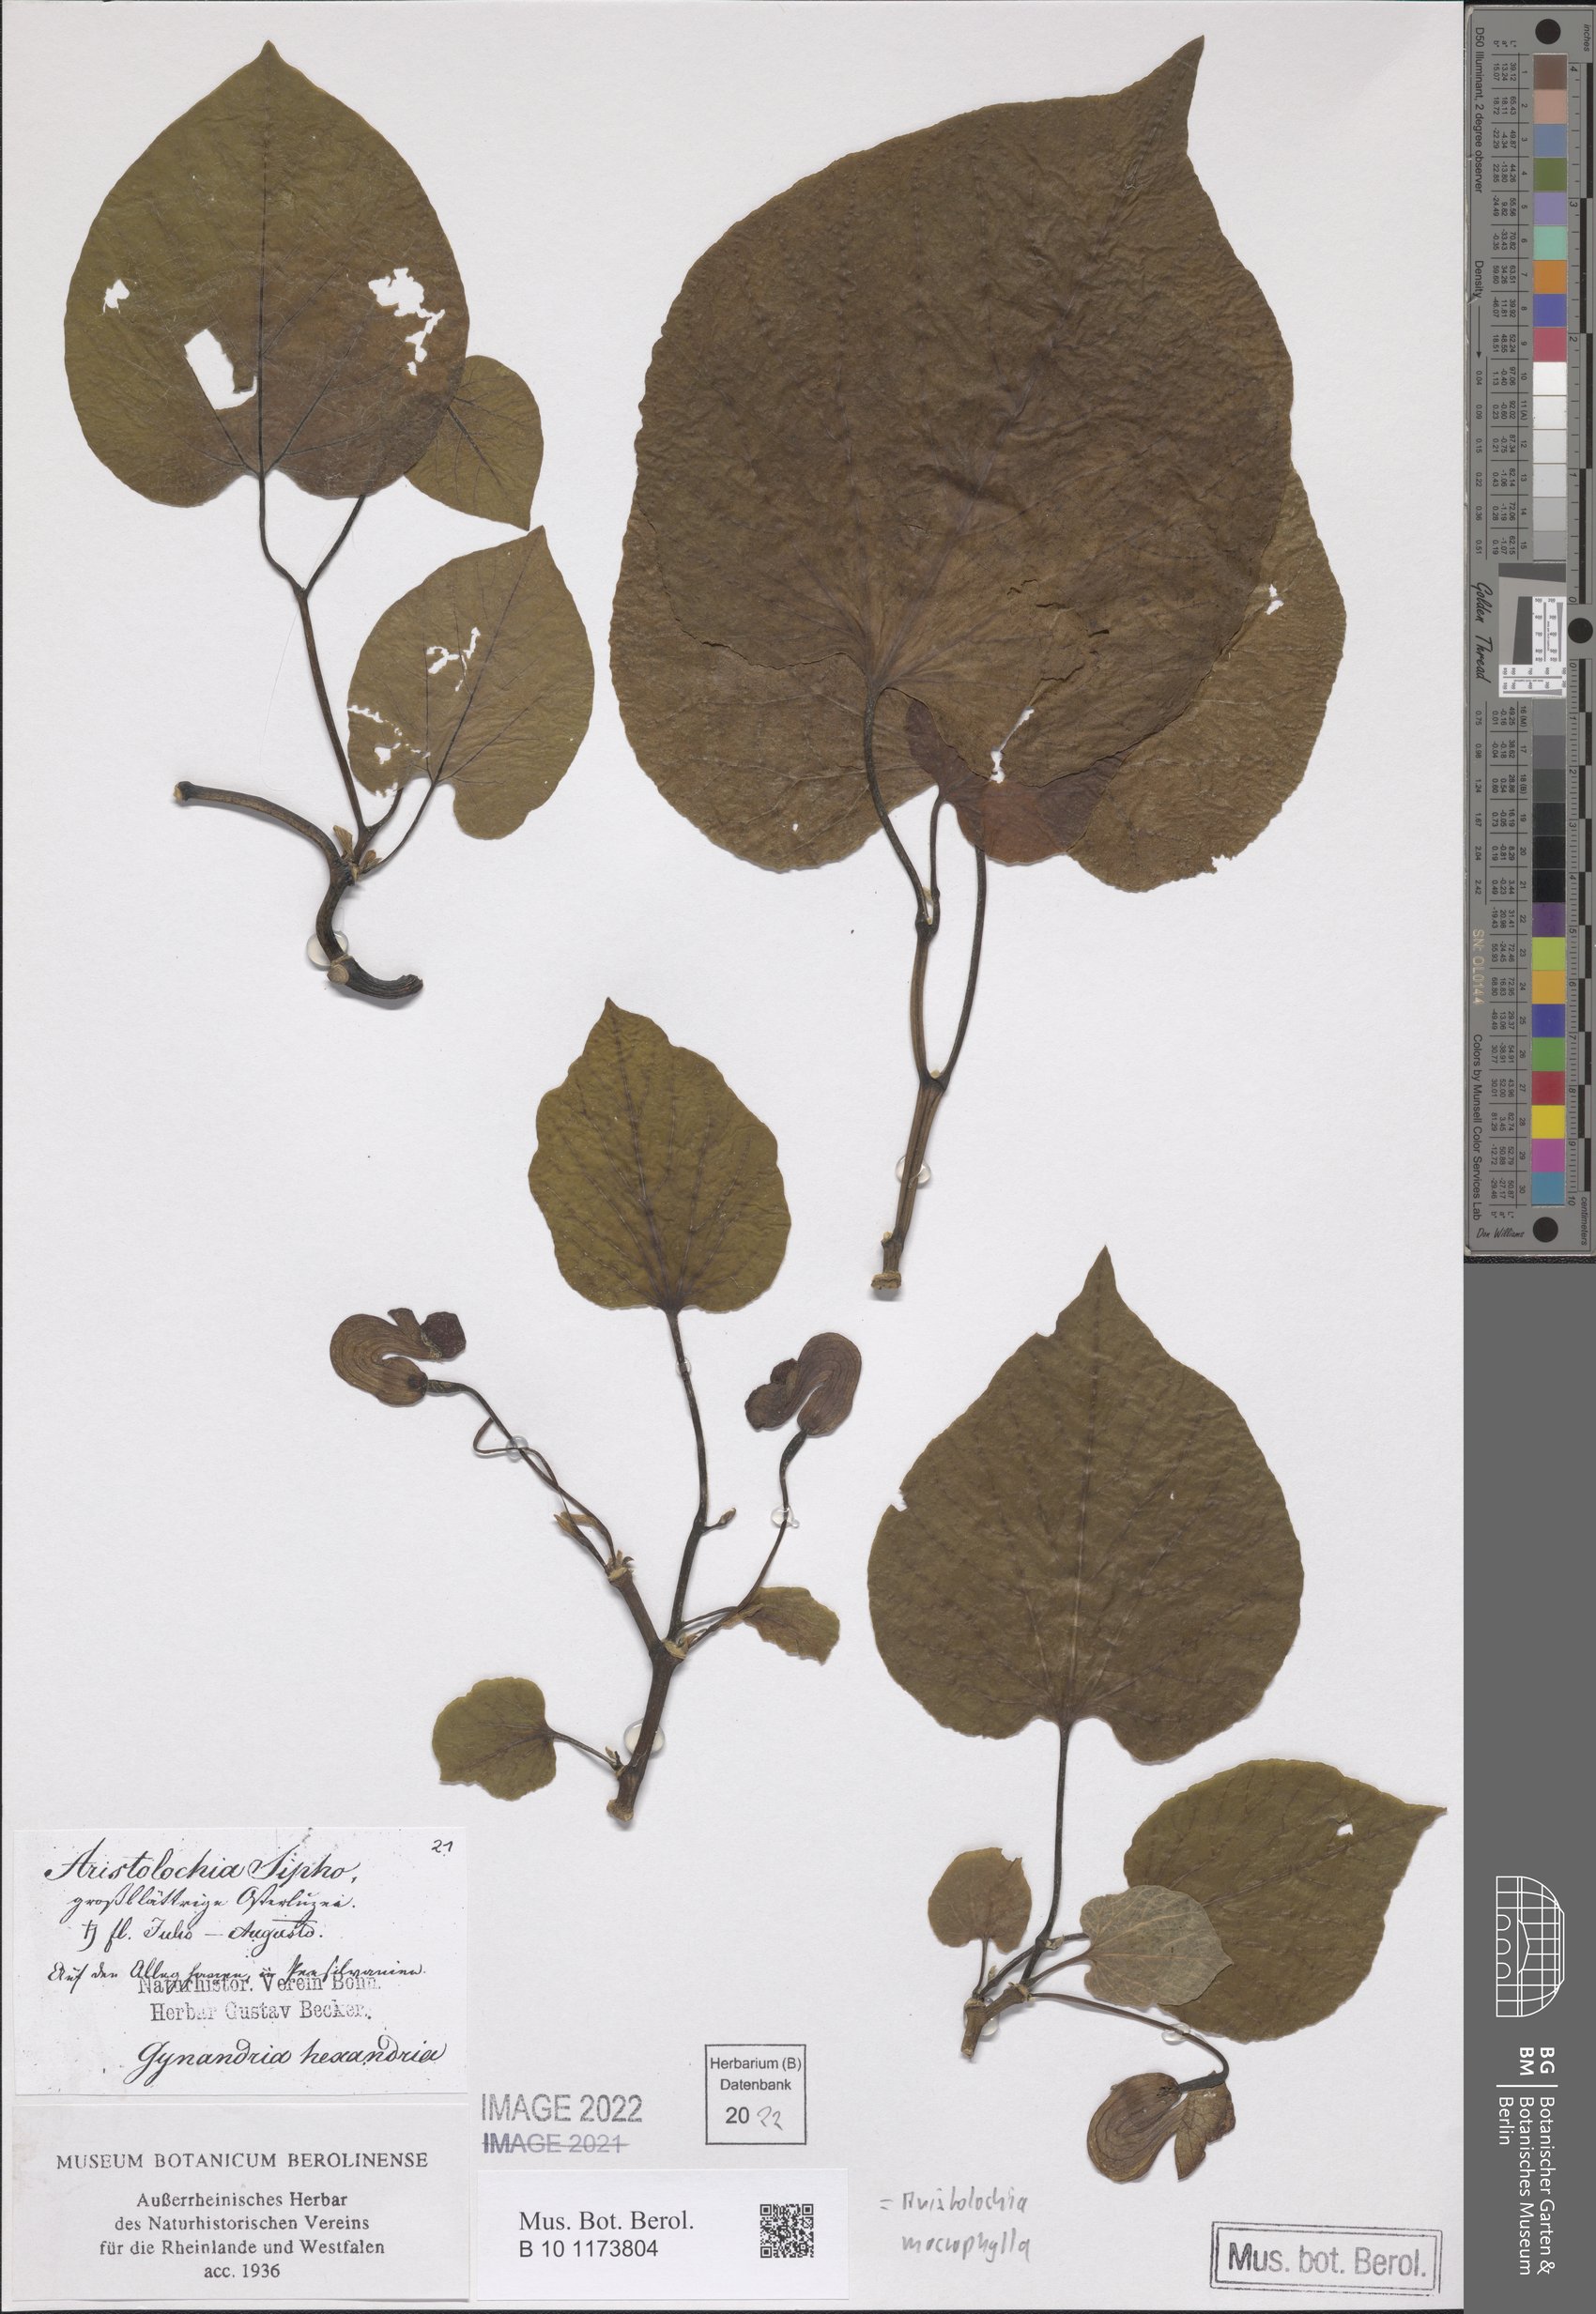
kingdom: Plantae
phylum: Tracheophyta
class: Magnoliopsida
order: Piperales
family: Aristolochiaceae
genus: Isotrema
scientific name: Isotrema macrophyllum
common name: Dutchman's-pipe
